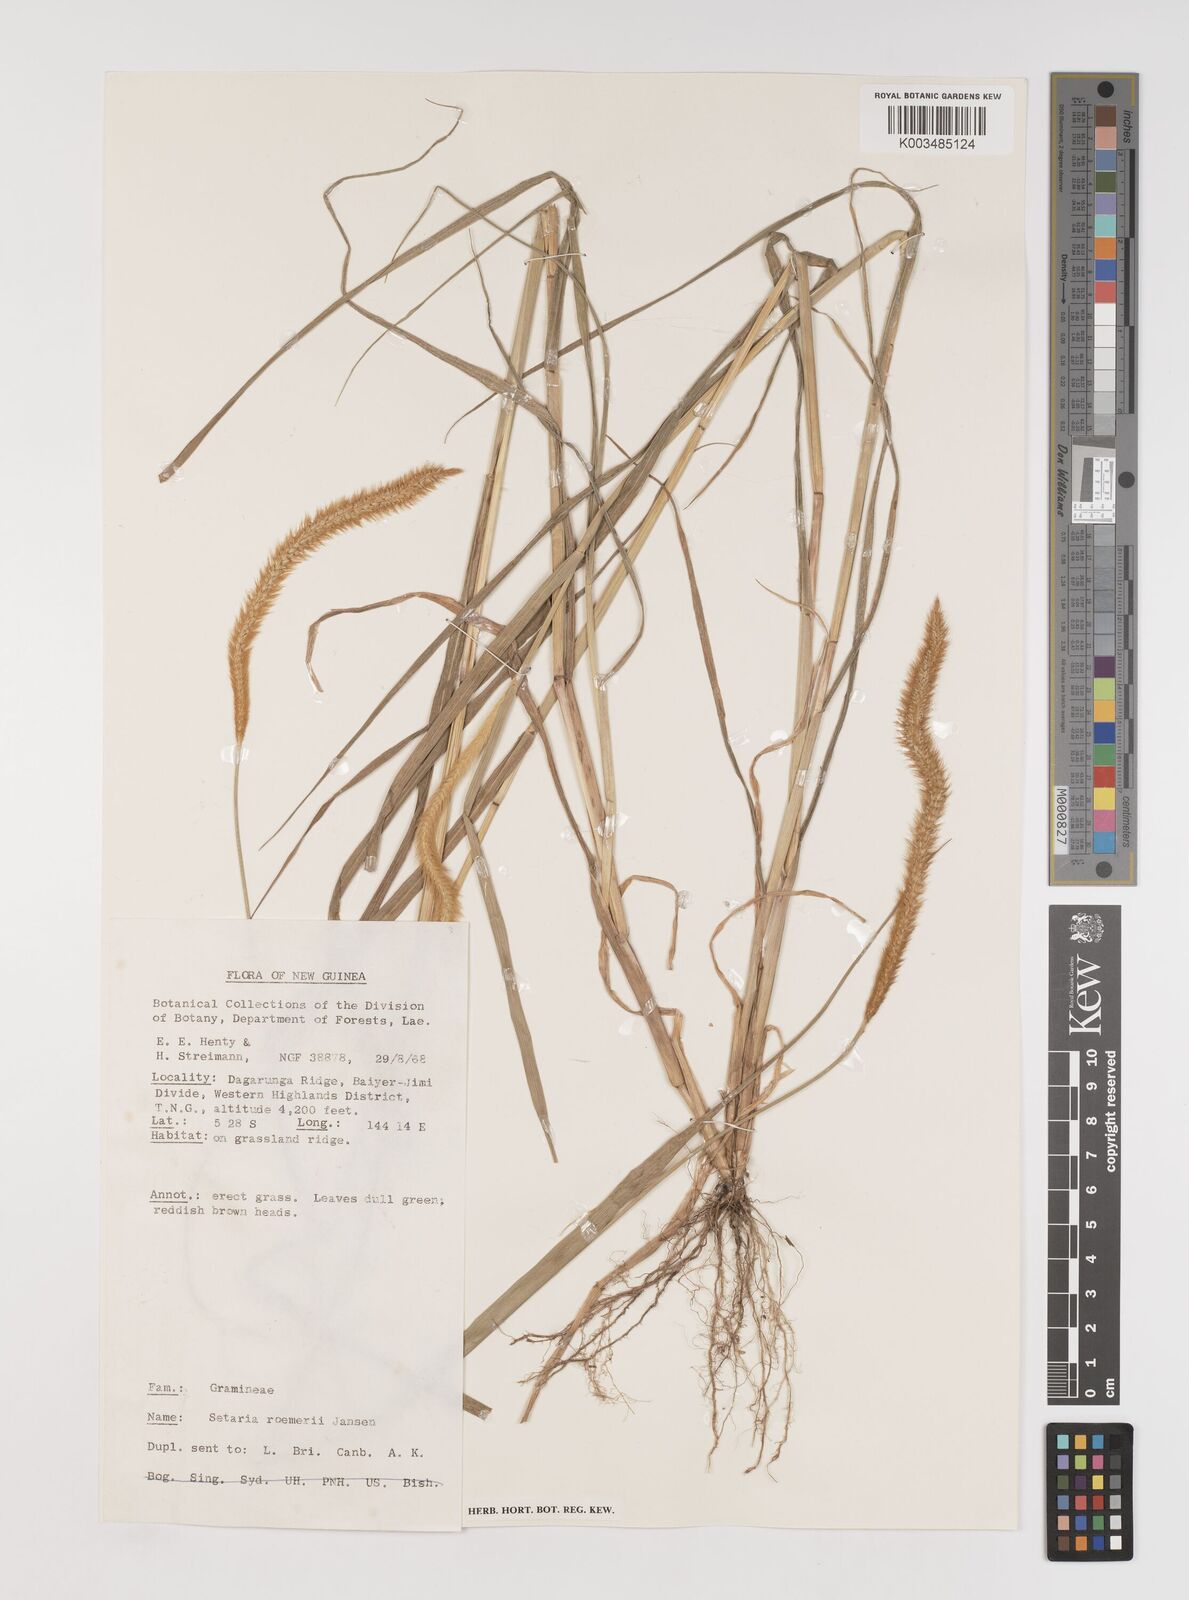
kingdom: Plantae
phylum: Tracheophyta
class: Liliopsida
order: Poales
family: Poaceae
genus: Setaria
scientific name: Setaria roemeri
